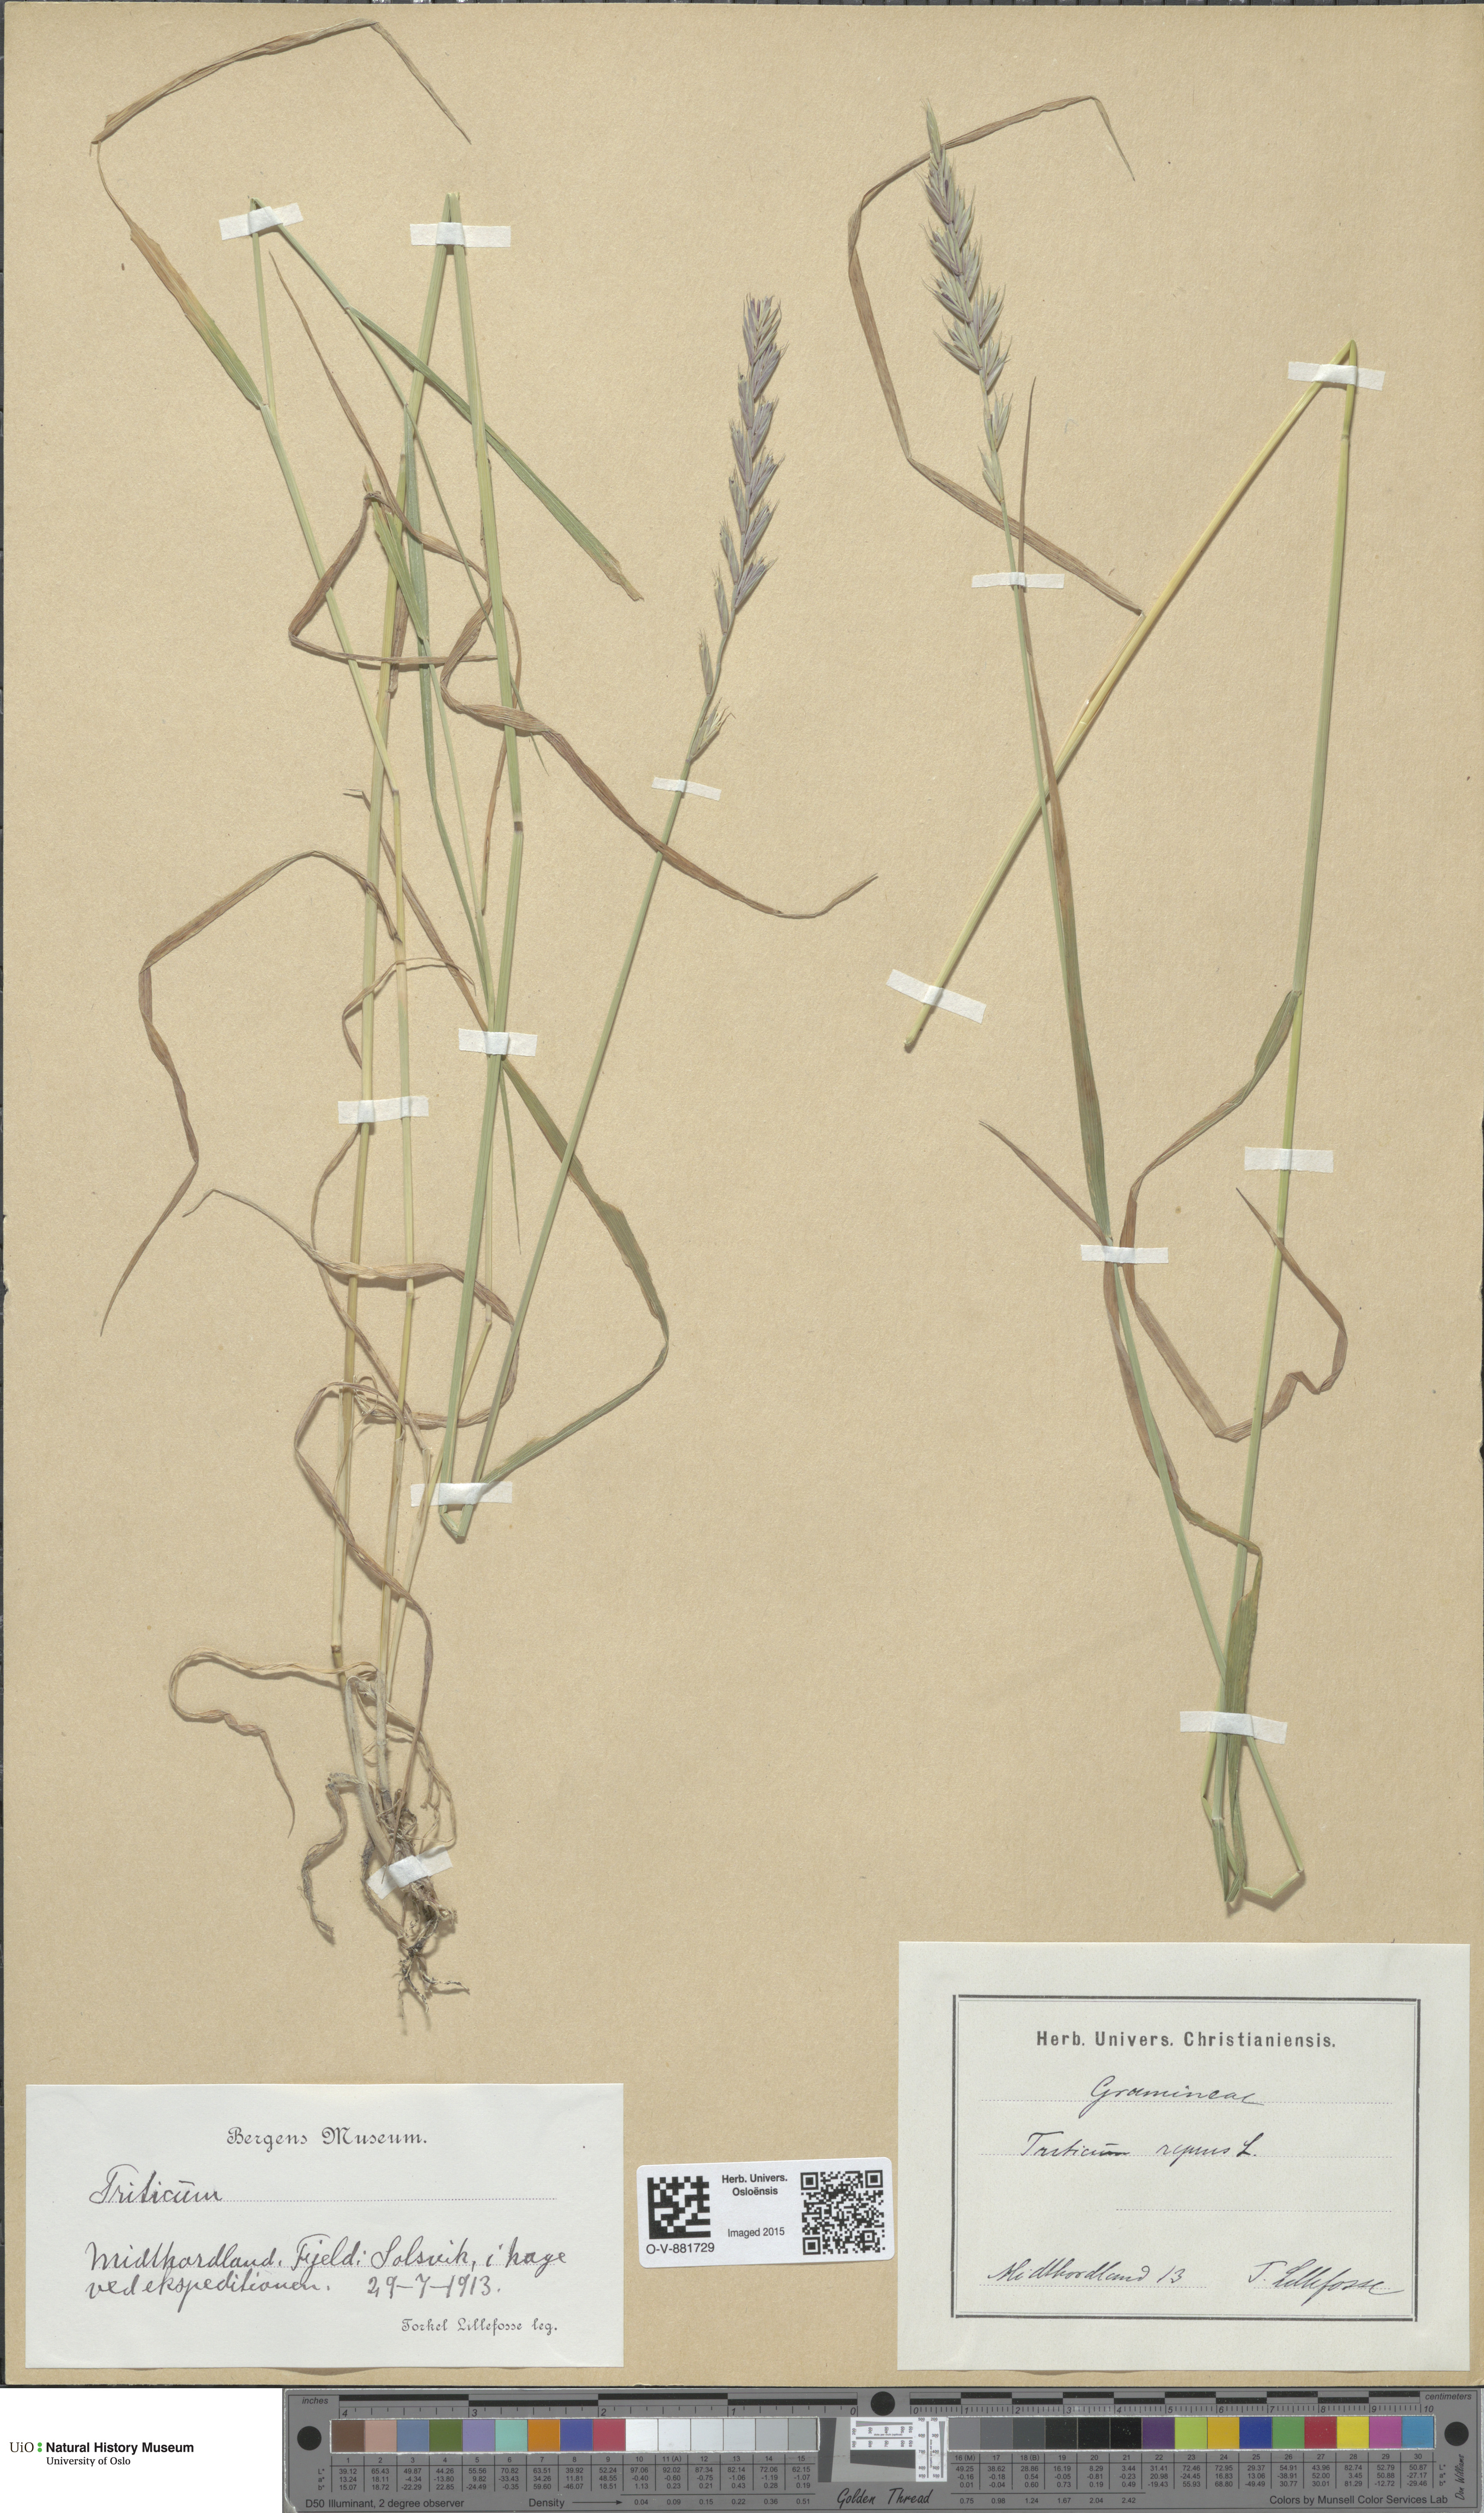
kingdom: Plantae
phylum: Tracheophyta
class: Liliopsida
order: Poales
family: Poaceae
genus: Elymus
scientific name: Elymus repens
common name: Quackgrass
